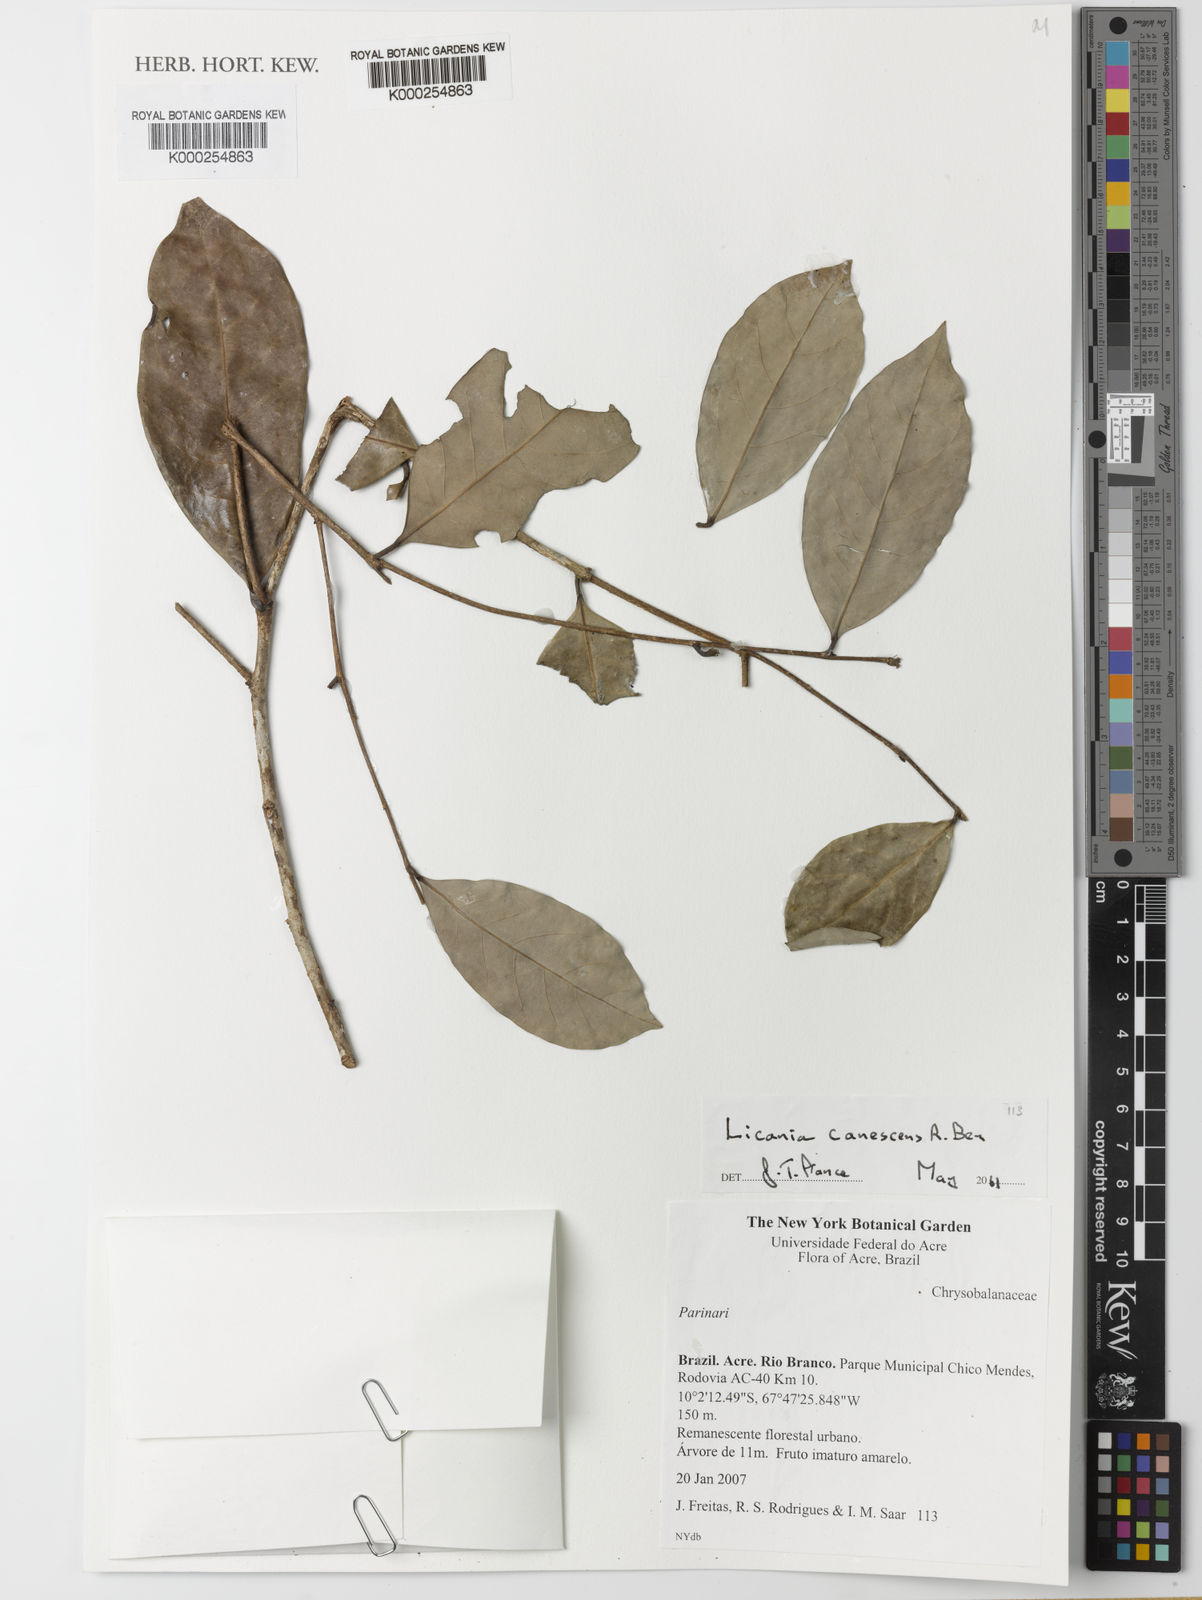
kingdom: Plantae
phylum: Tracheophyta
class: Magnoliopsida
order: Malpighiales
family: Chrysobalanaceae
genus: Licania
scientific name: Licania canescens
